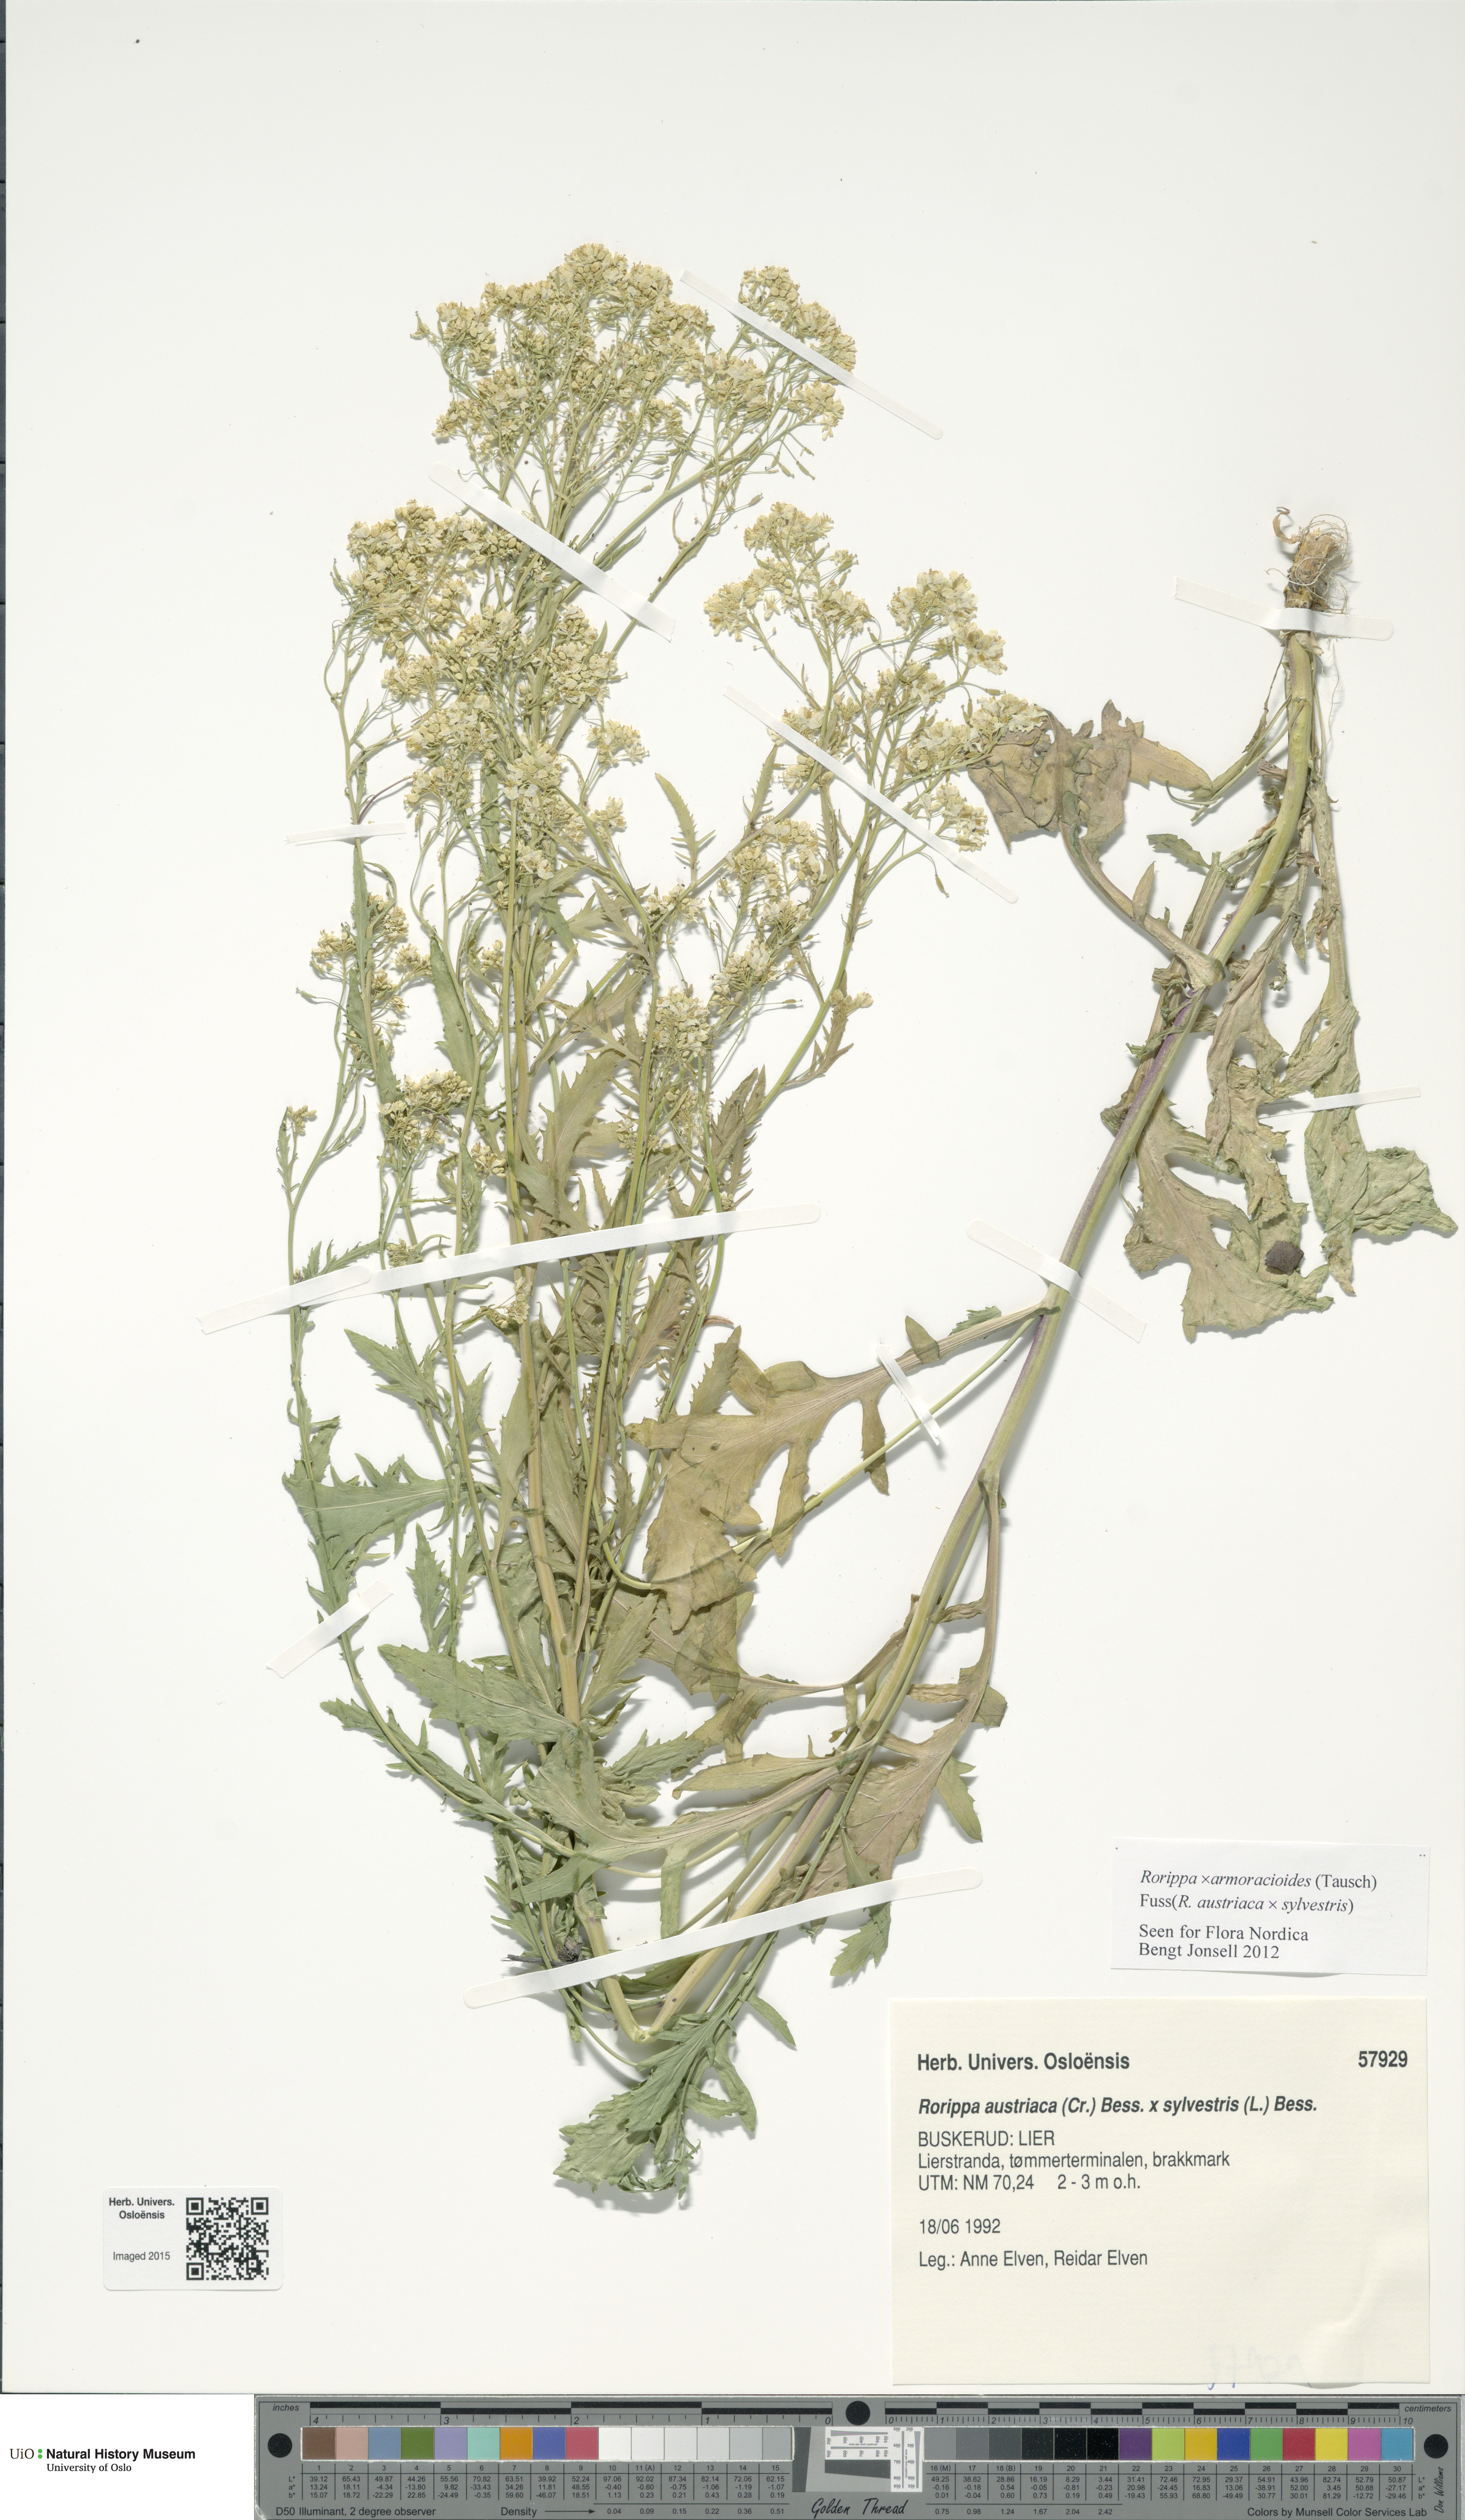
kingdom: Plantae
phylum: Tracheophyta
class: Magnoliopsida
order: Brassicales
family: Brassicaceae
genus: Rorippa
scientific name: Rorippa
